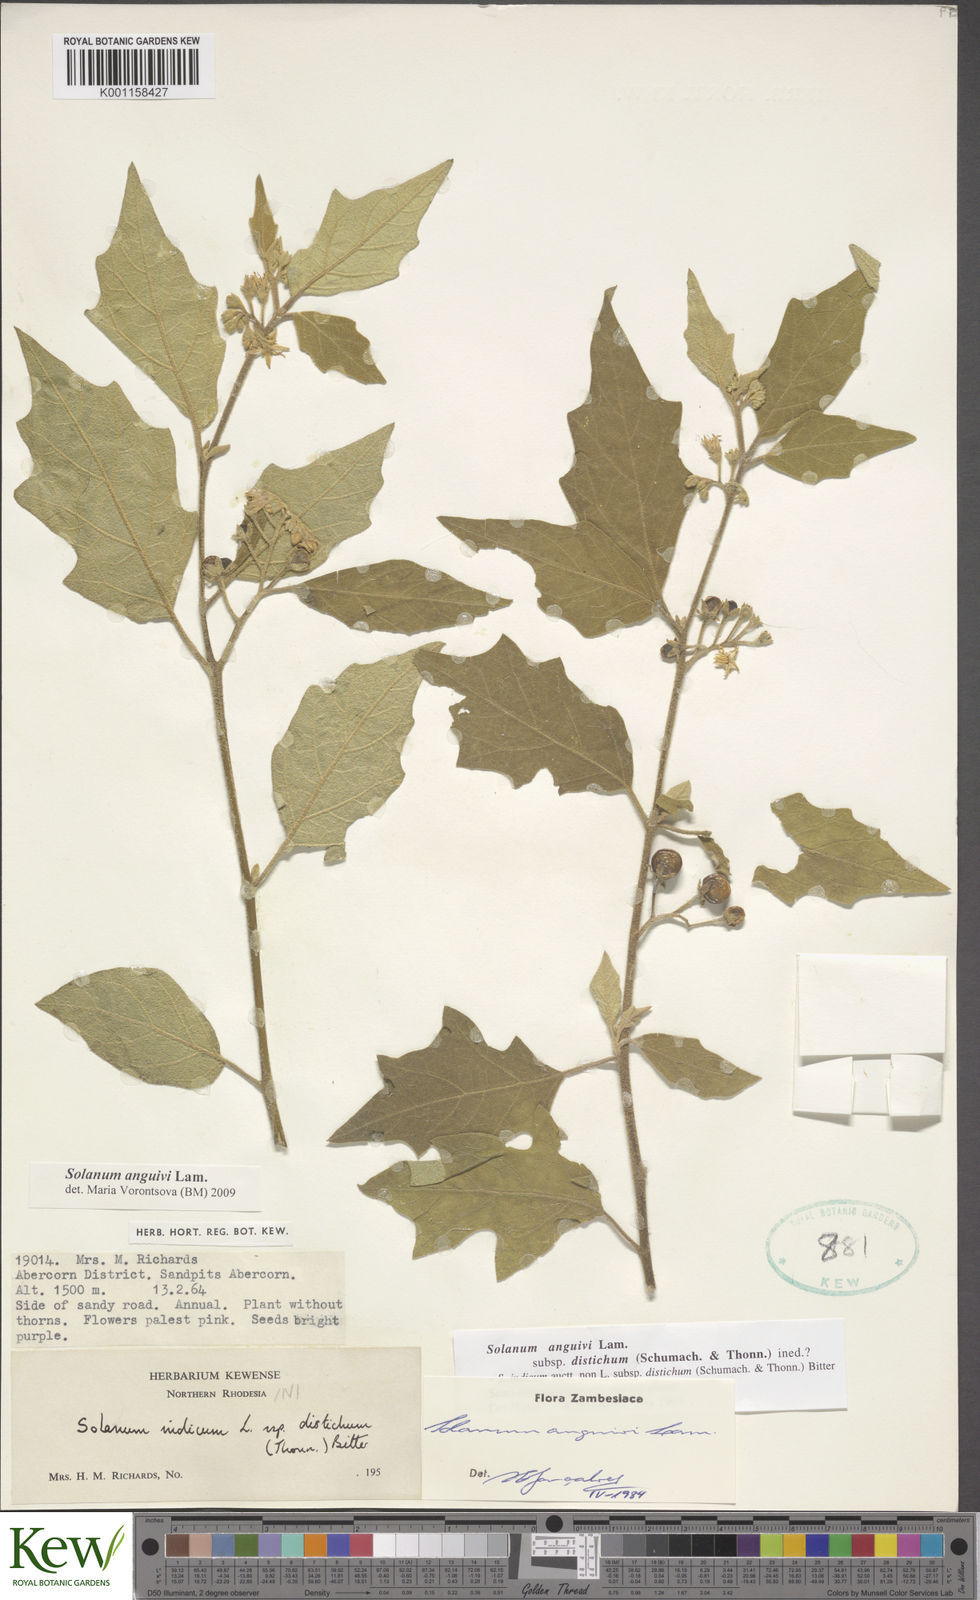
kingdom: Plantae
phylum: Tracheophyta
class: Magnoliopsida
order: Solanales
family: Solanaceae
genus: Solanum
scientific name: Solanum anguivi
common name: Forest bitterberry
